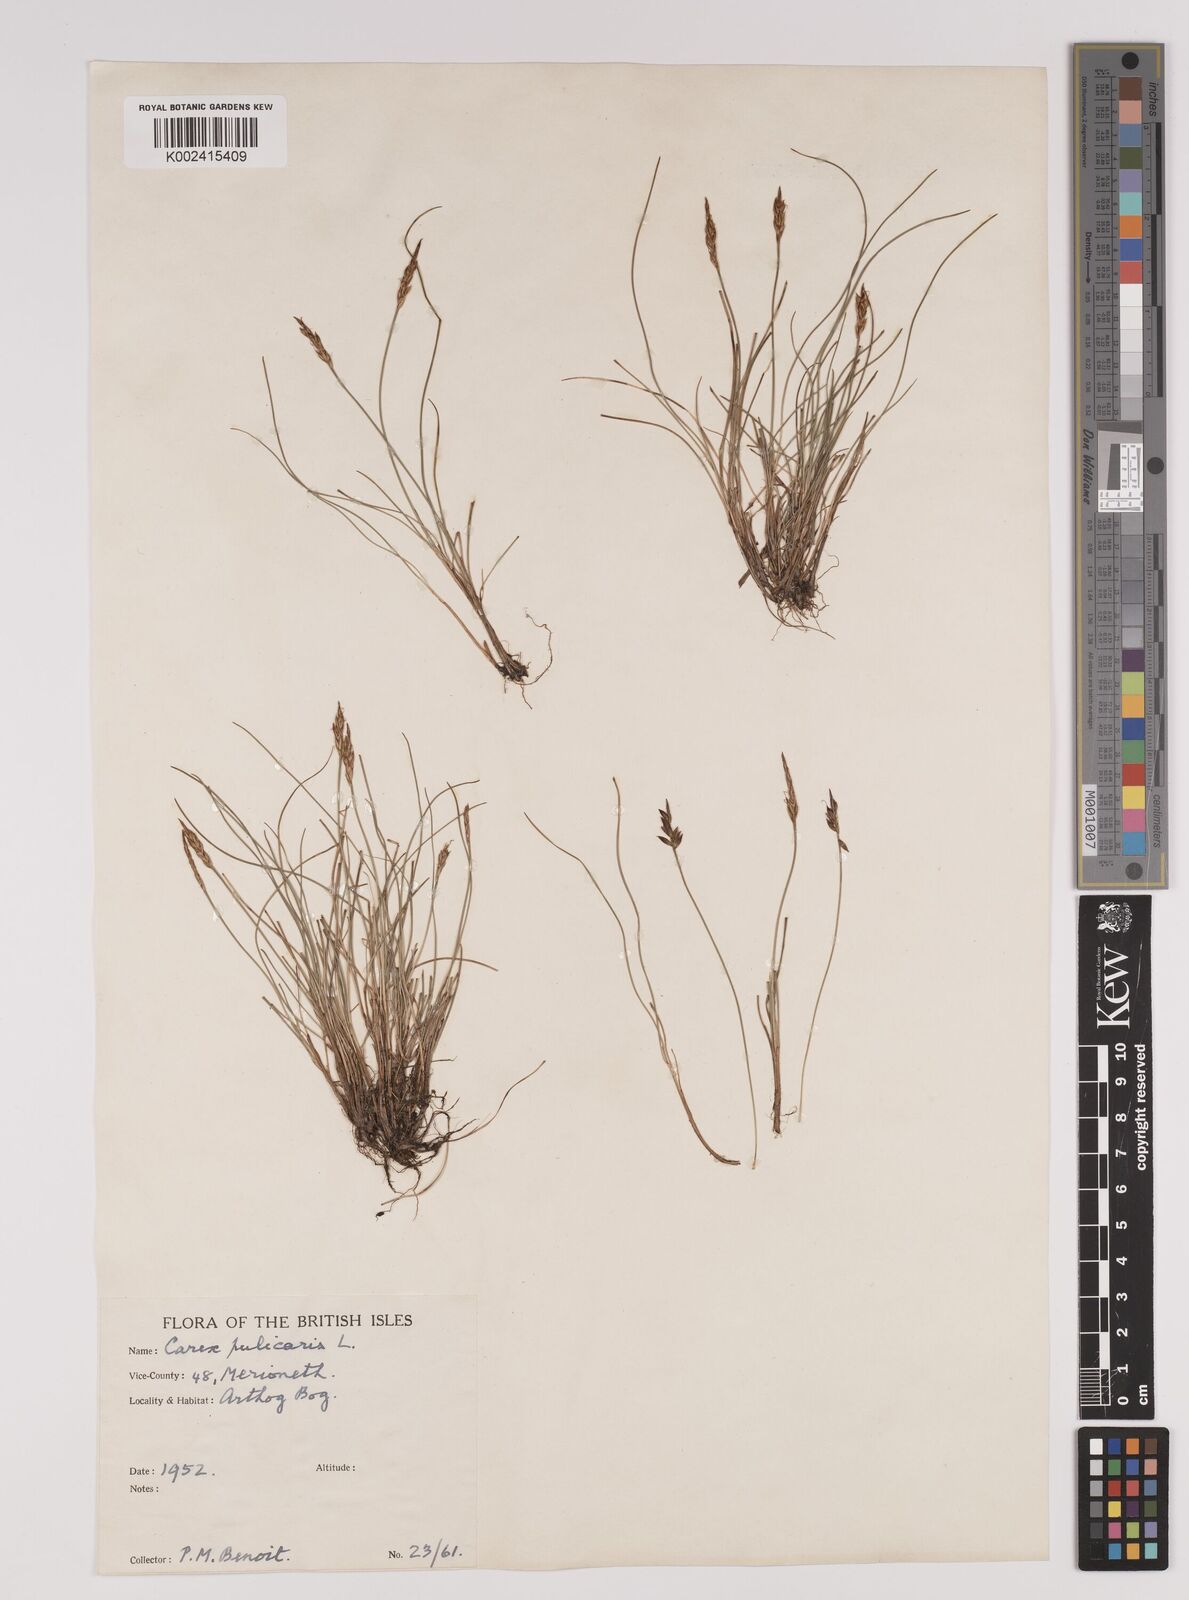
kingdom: Plantae
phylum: Tracheophyta
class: Liliopsida
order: Poales
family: Cyperaceae
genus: Carex
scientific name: Carex pulicaris
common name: Flea sedge
